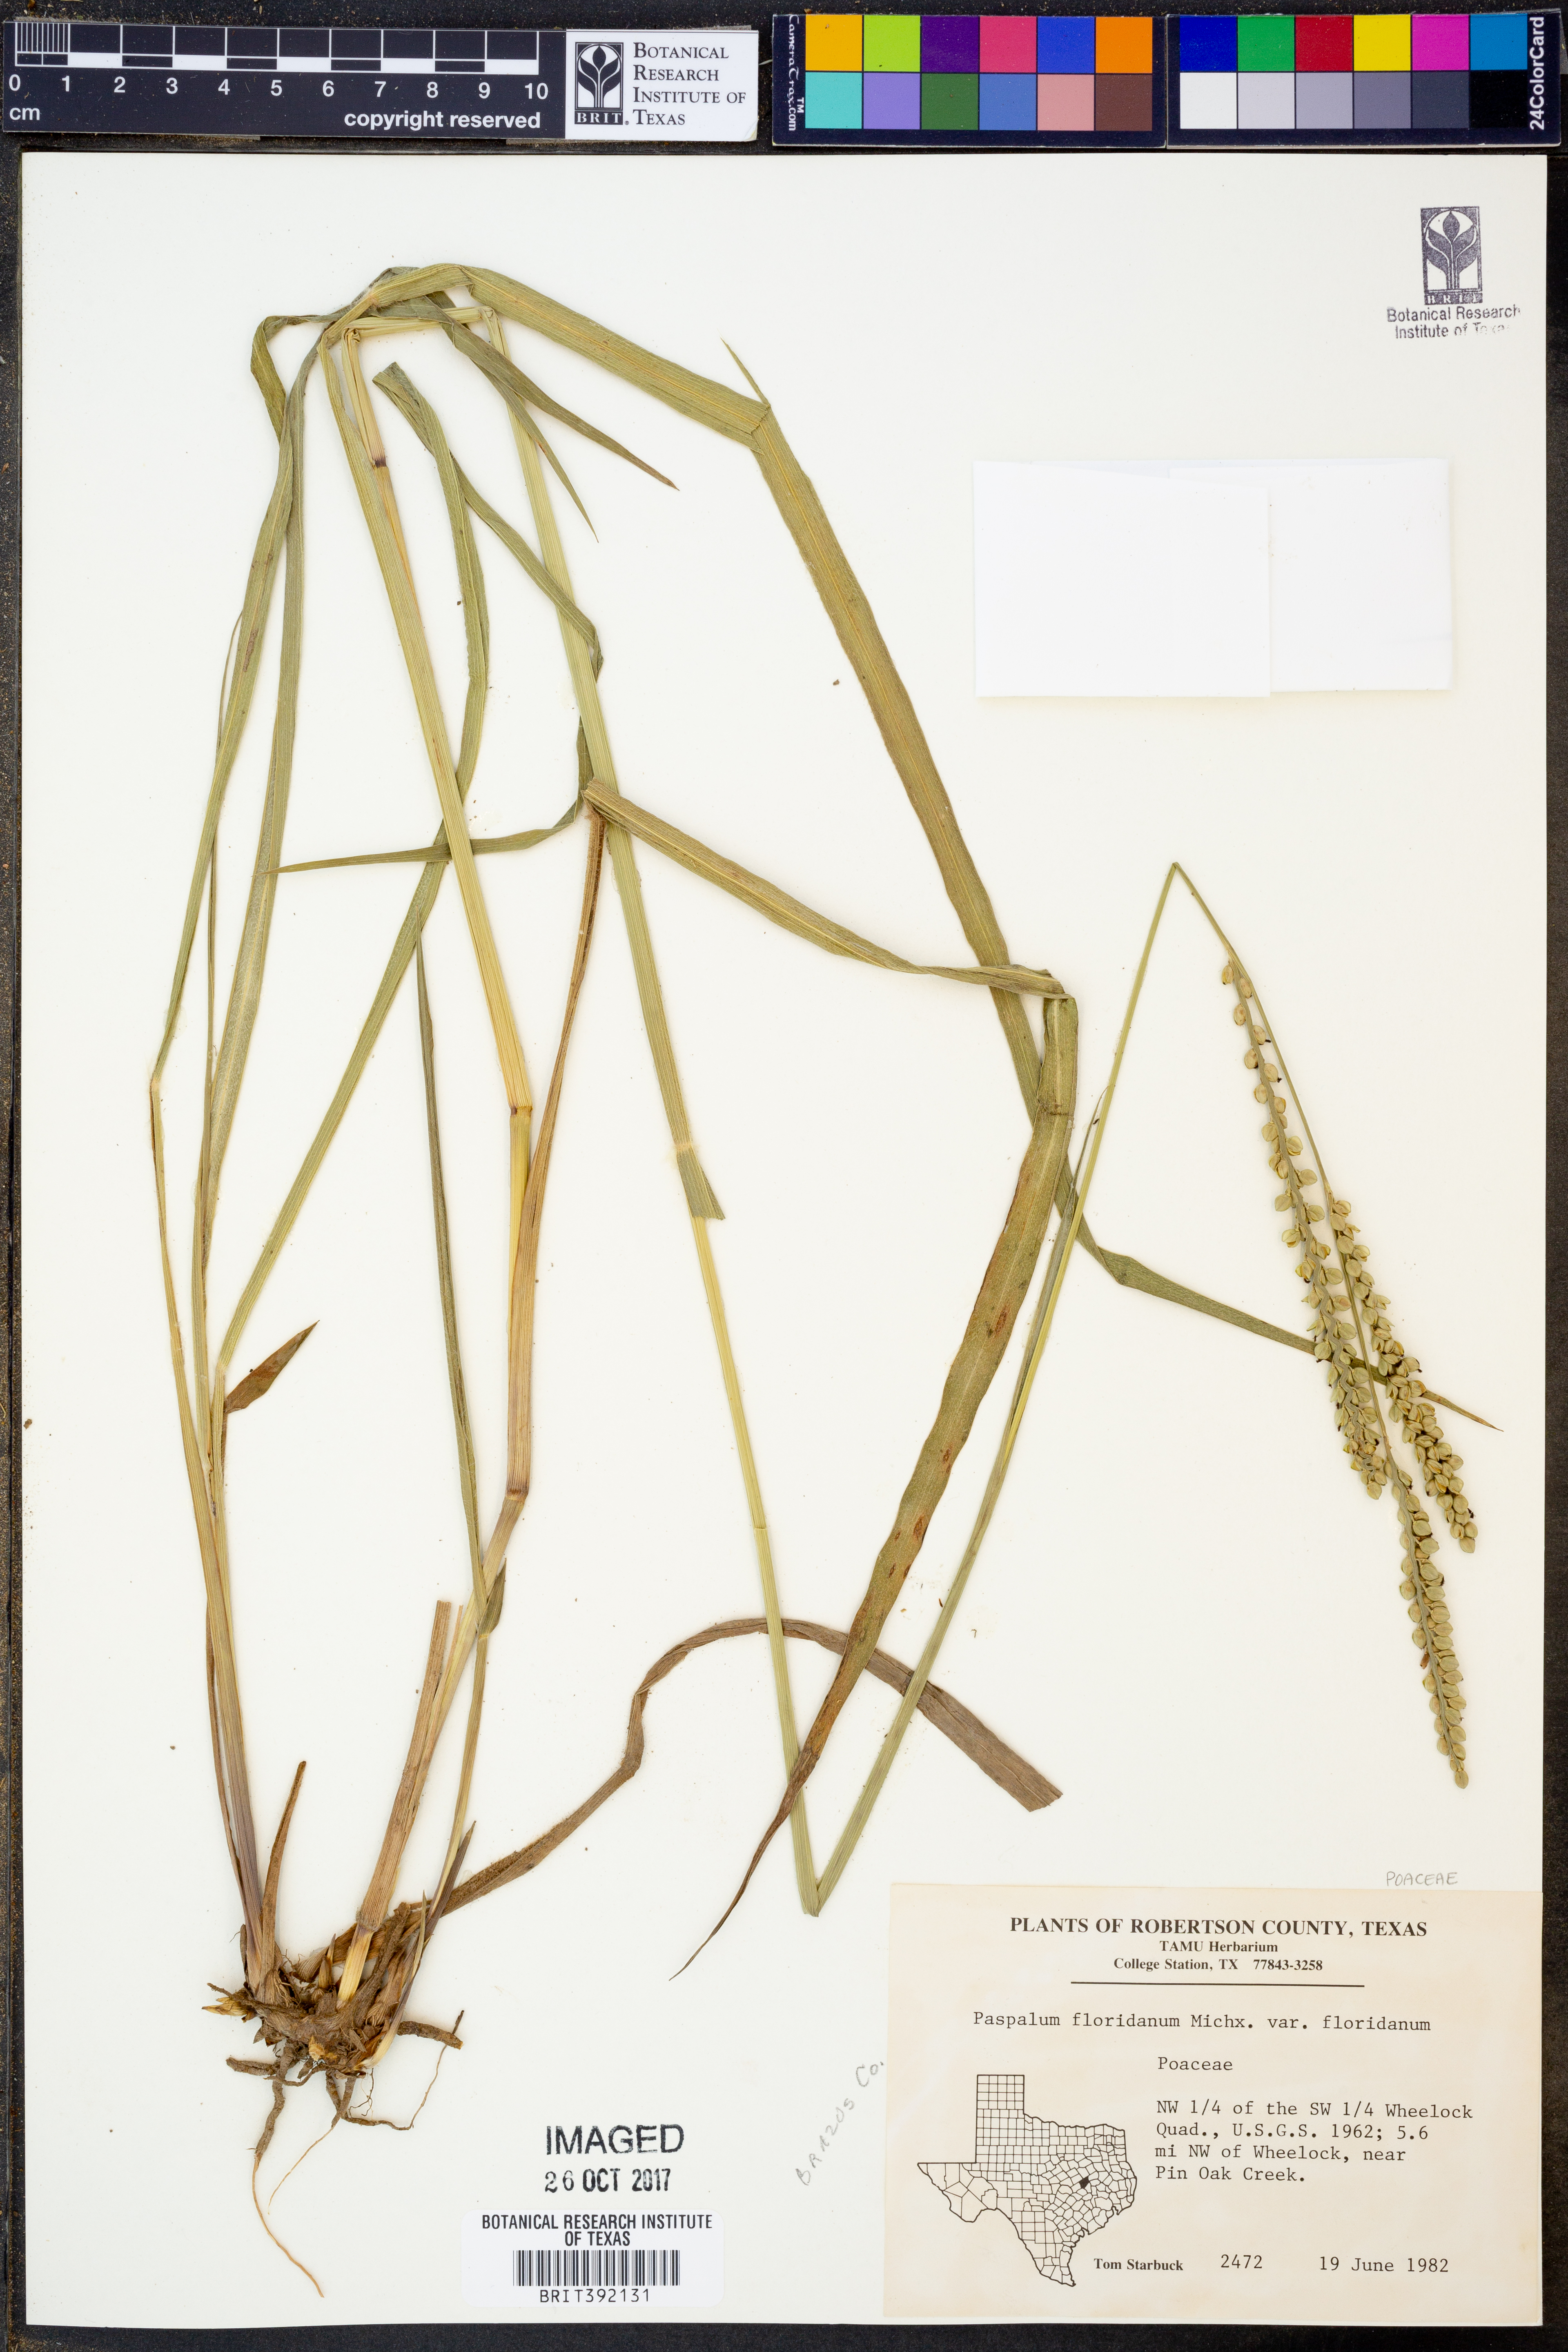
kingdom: Plantae
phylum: Tracheophyta
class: Liliopsida
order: Poales
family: Poaceae
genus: Paspalum
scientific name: Paspalum floridanum
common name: Florida paspalum
